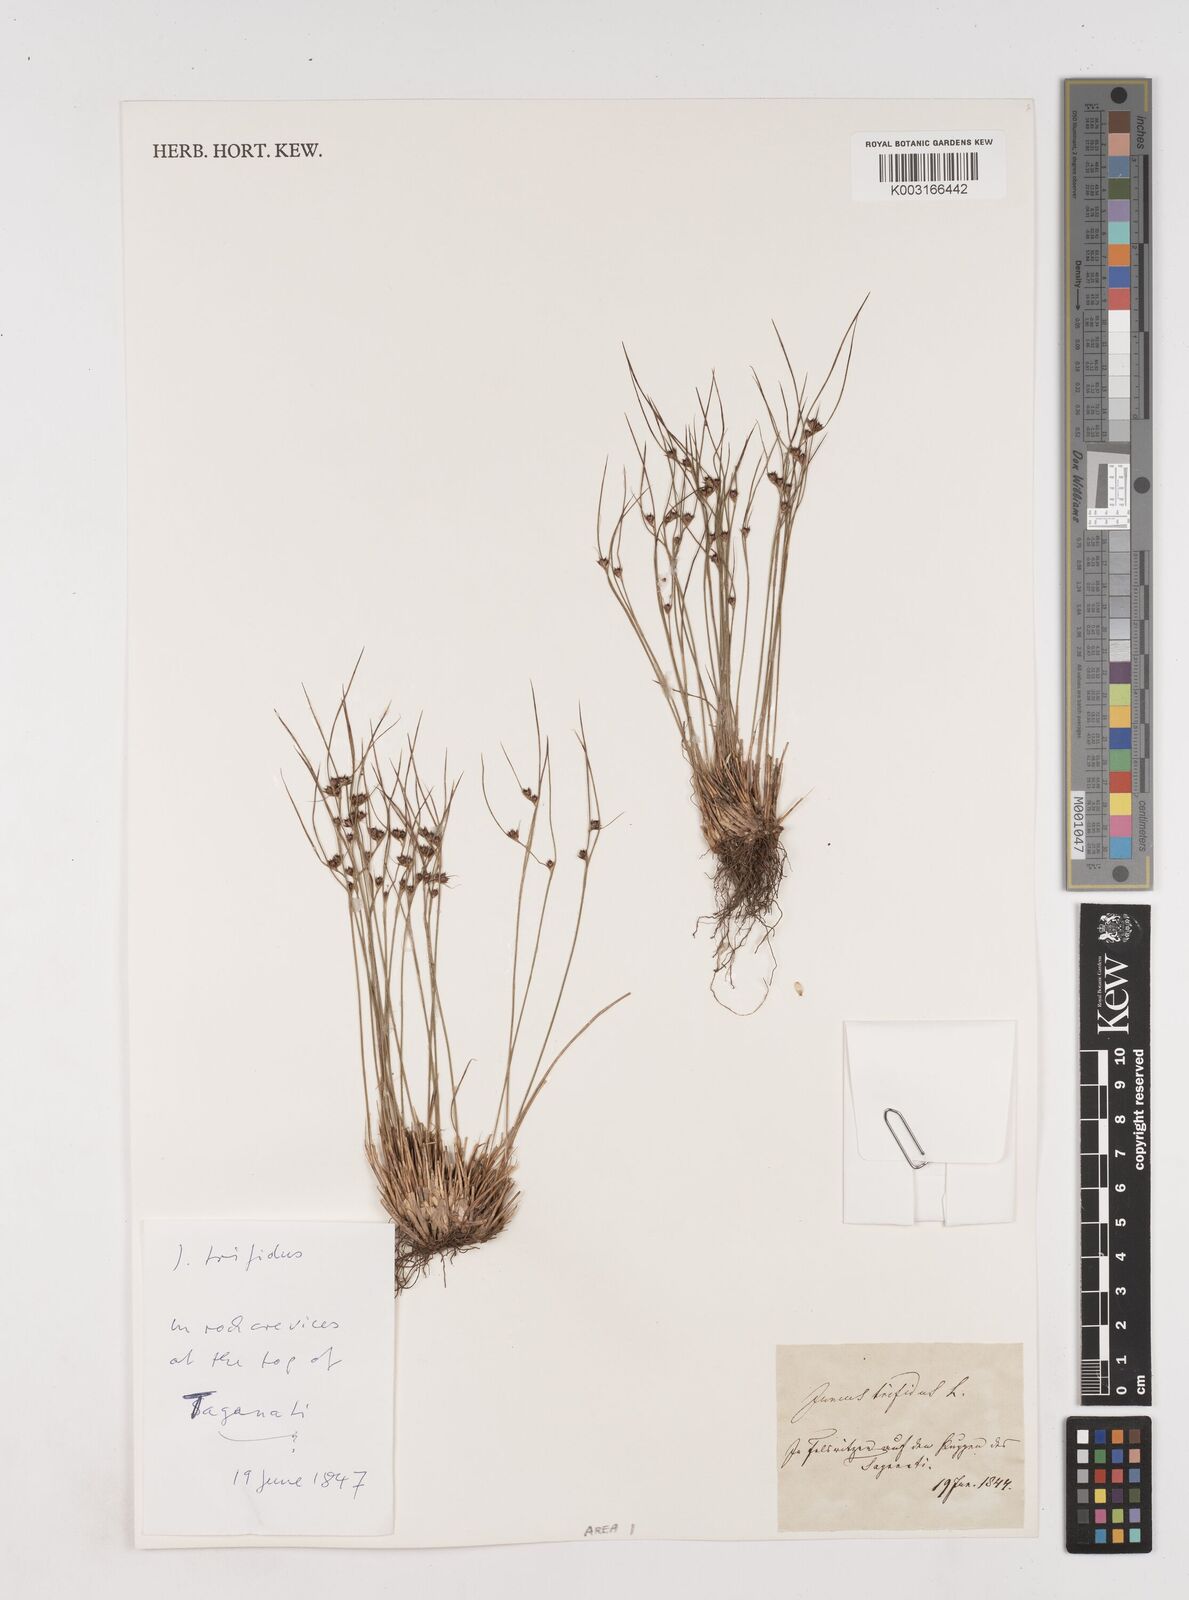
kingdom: Plantae
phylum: Tracheophyta
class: Liliopsida
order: Poales
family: Juncaceae
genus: Oreojuncus
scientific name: Oreojuncus trifidus
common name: Highland rush
